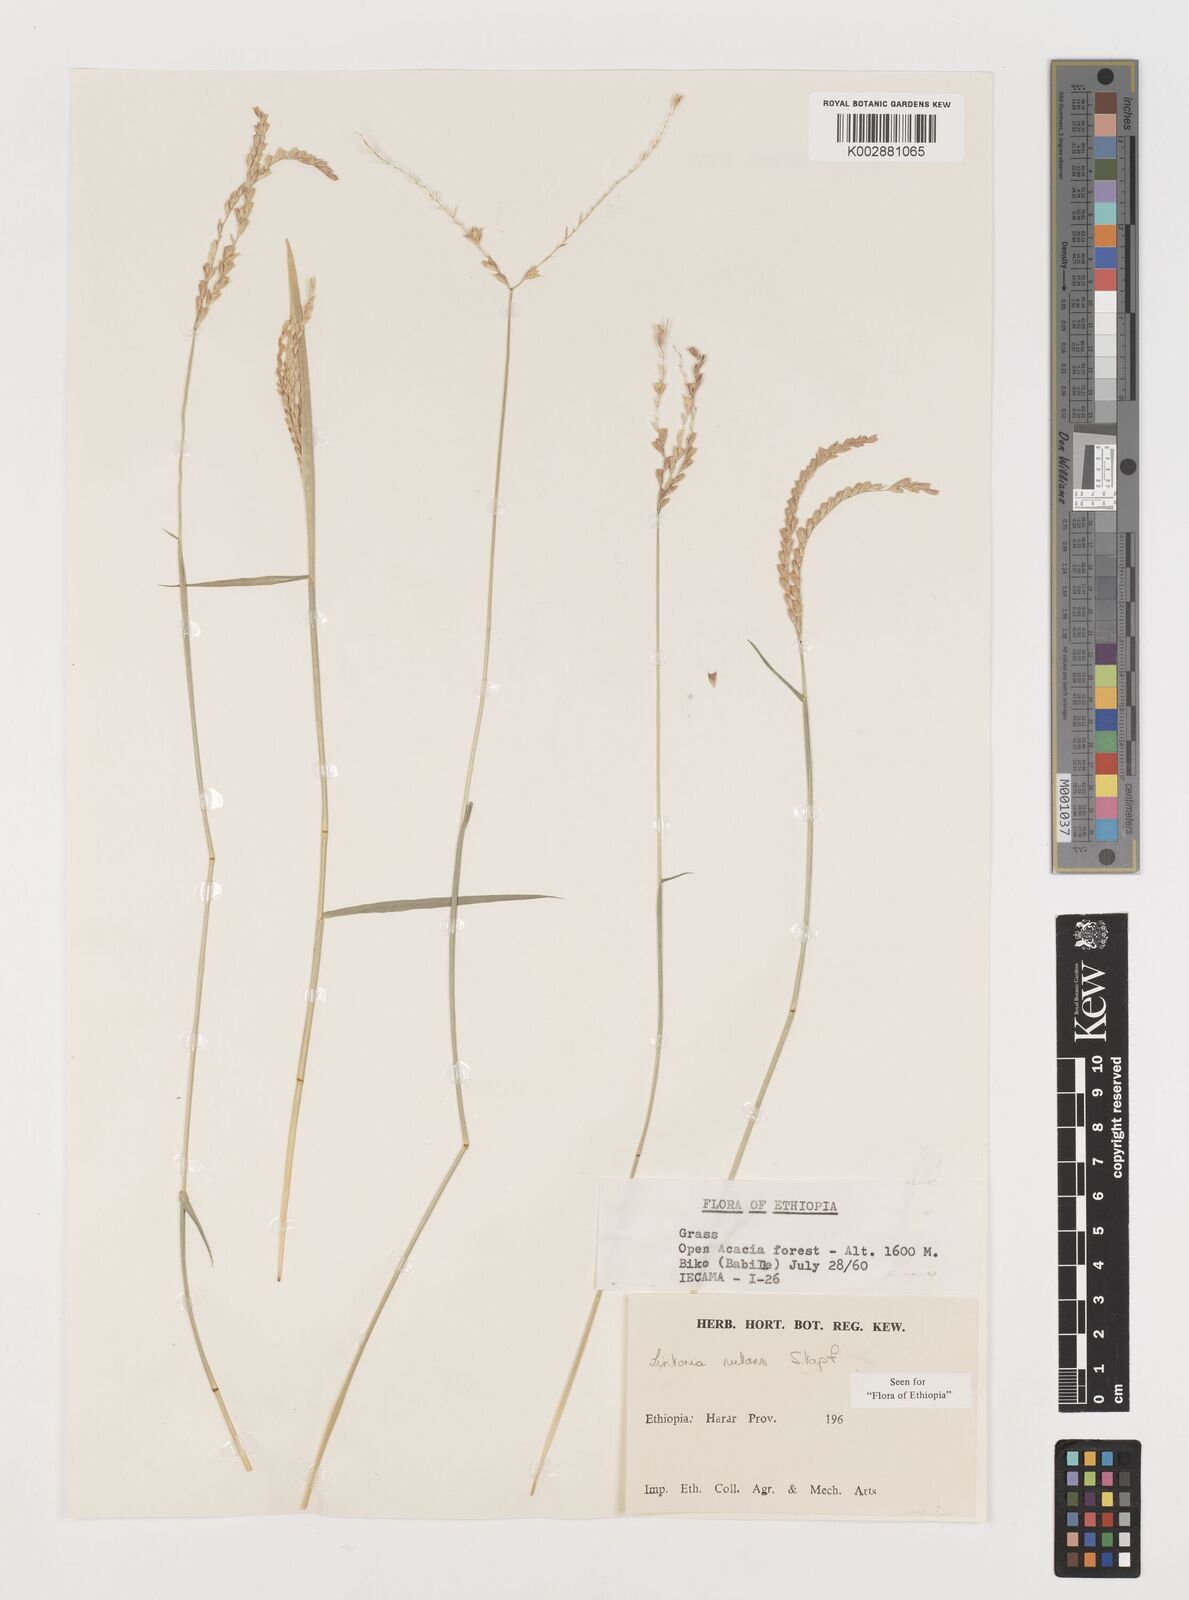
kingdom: Plantae
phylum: Tracheophyta
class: Liliopsida
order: Poales
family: Poaceae
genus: Chloris
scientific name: Chloris nutans
